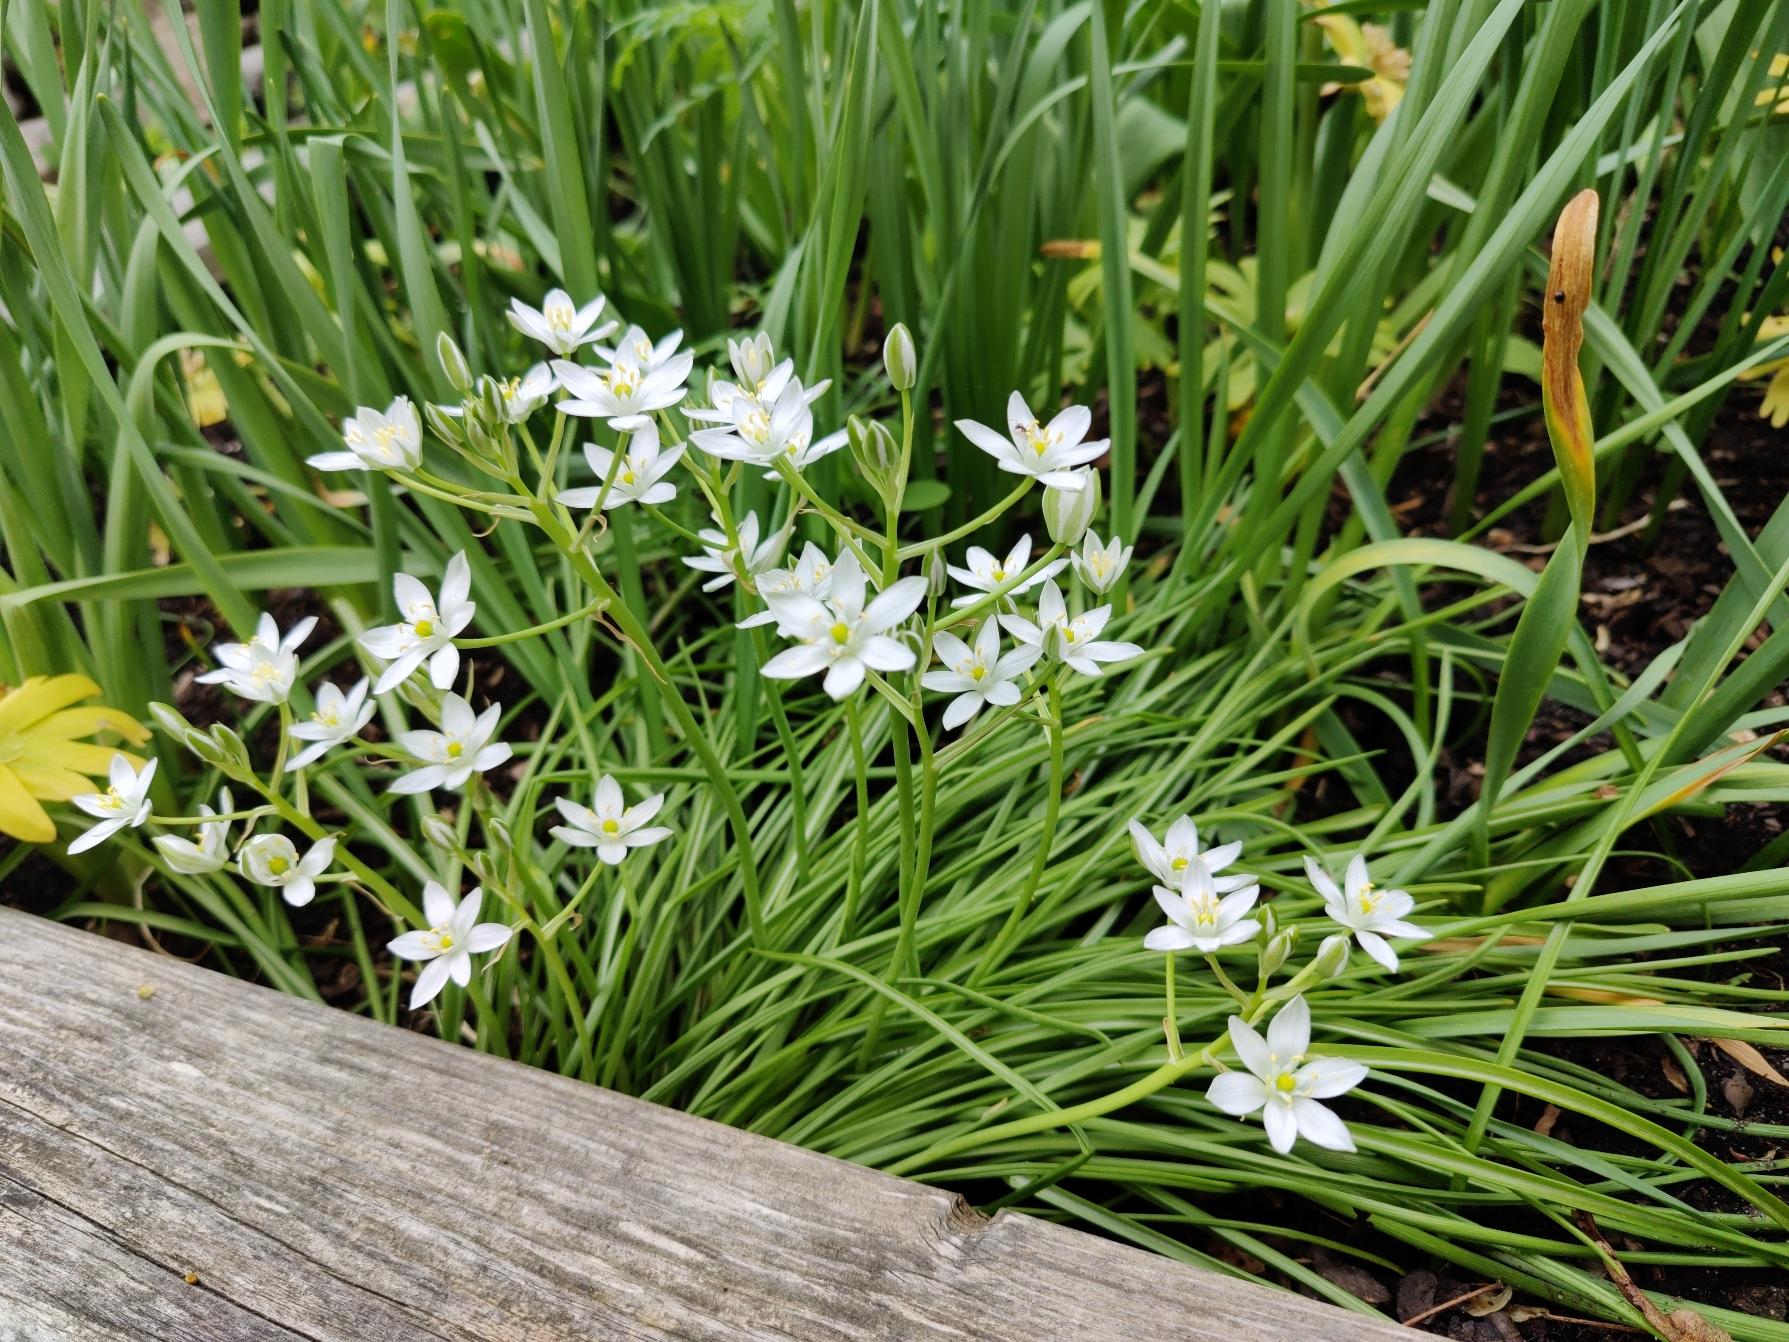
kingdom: Plantae
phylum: Tracheophyta
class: Liliopsida
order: Asparagales
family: Asparagaceae
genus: Ornithogalum
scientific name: Ornithogalum umbellatum
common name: Kost-fuglemælk
